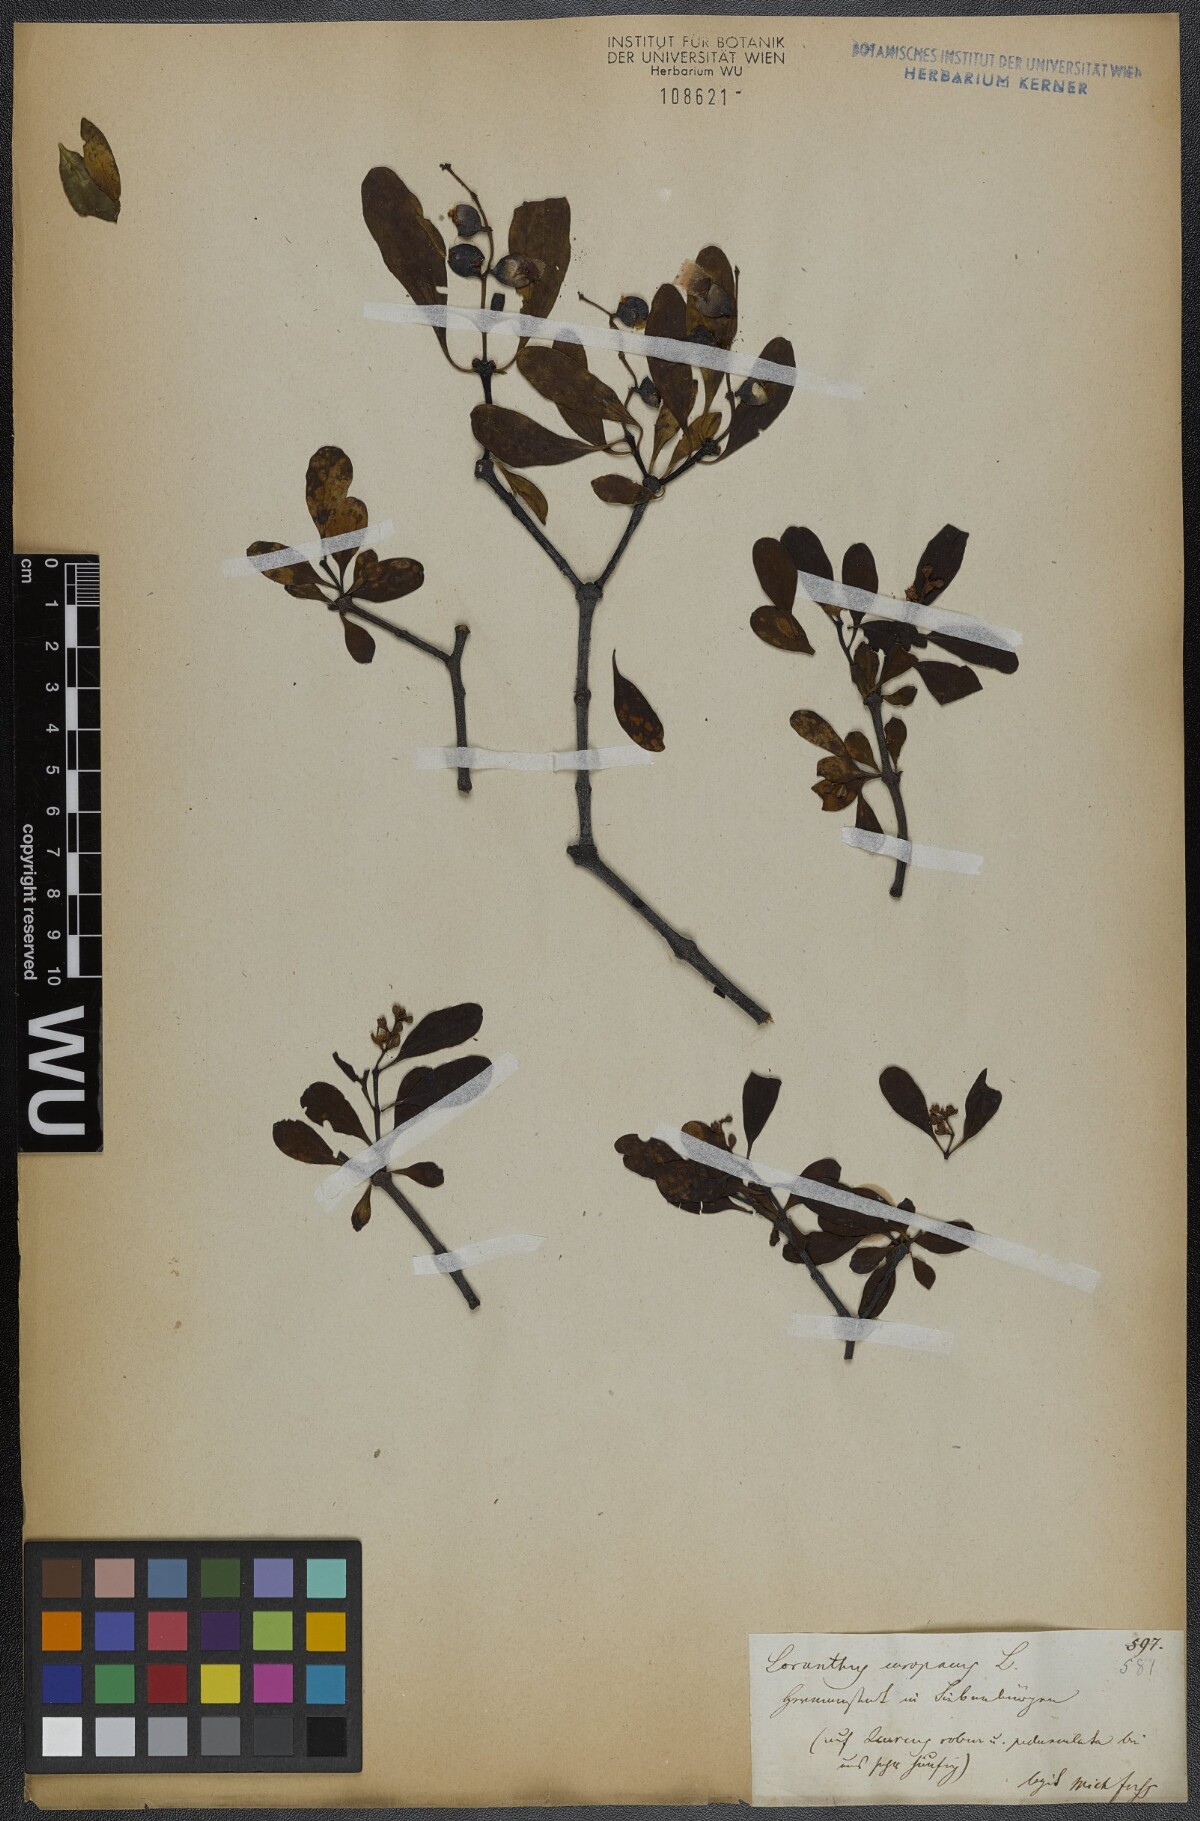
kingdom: Plantae
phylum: Tracheophyta
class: Magnoliopsida
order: Santalales
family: Loranthaceae
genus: Loranthus
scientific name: Loranthus europaeus
